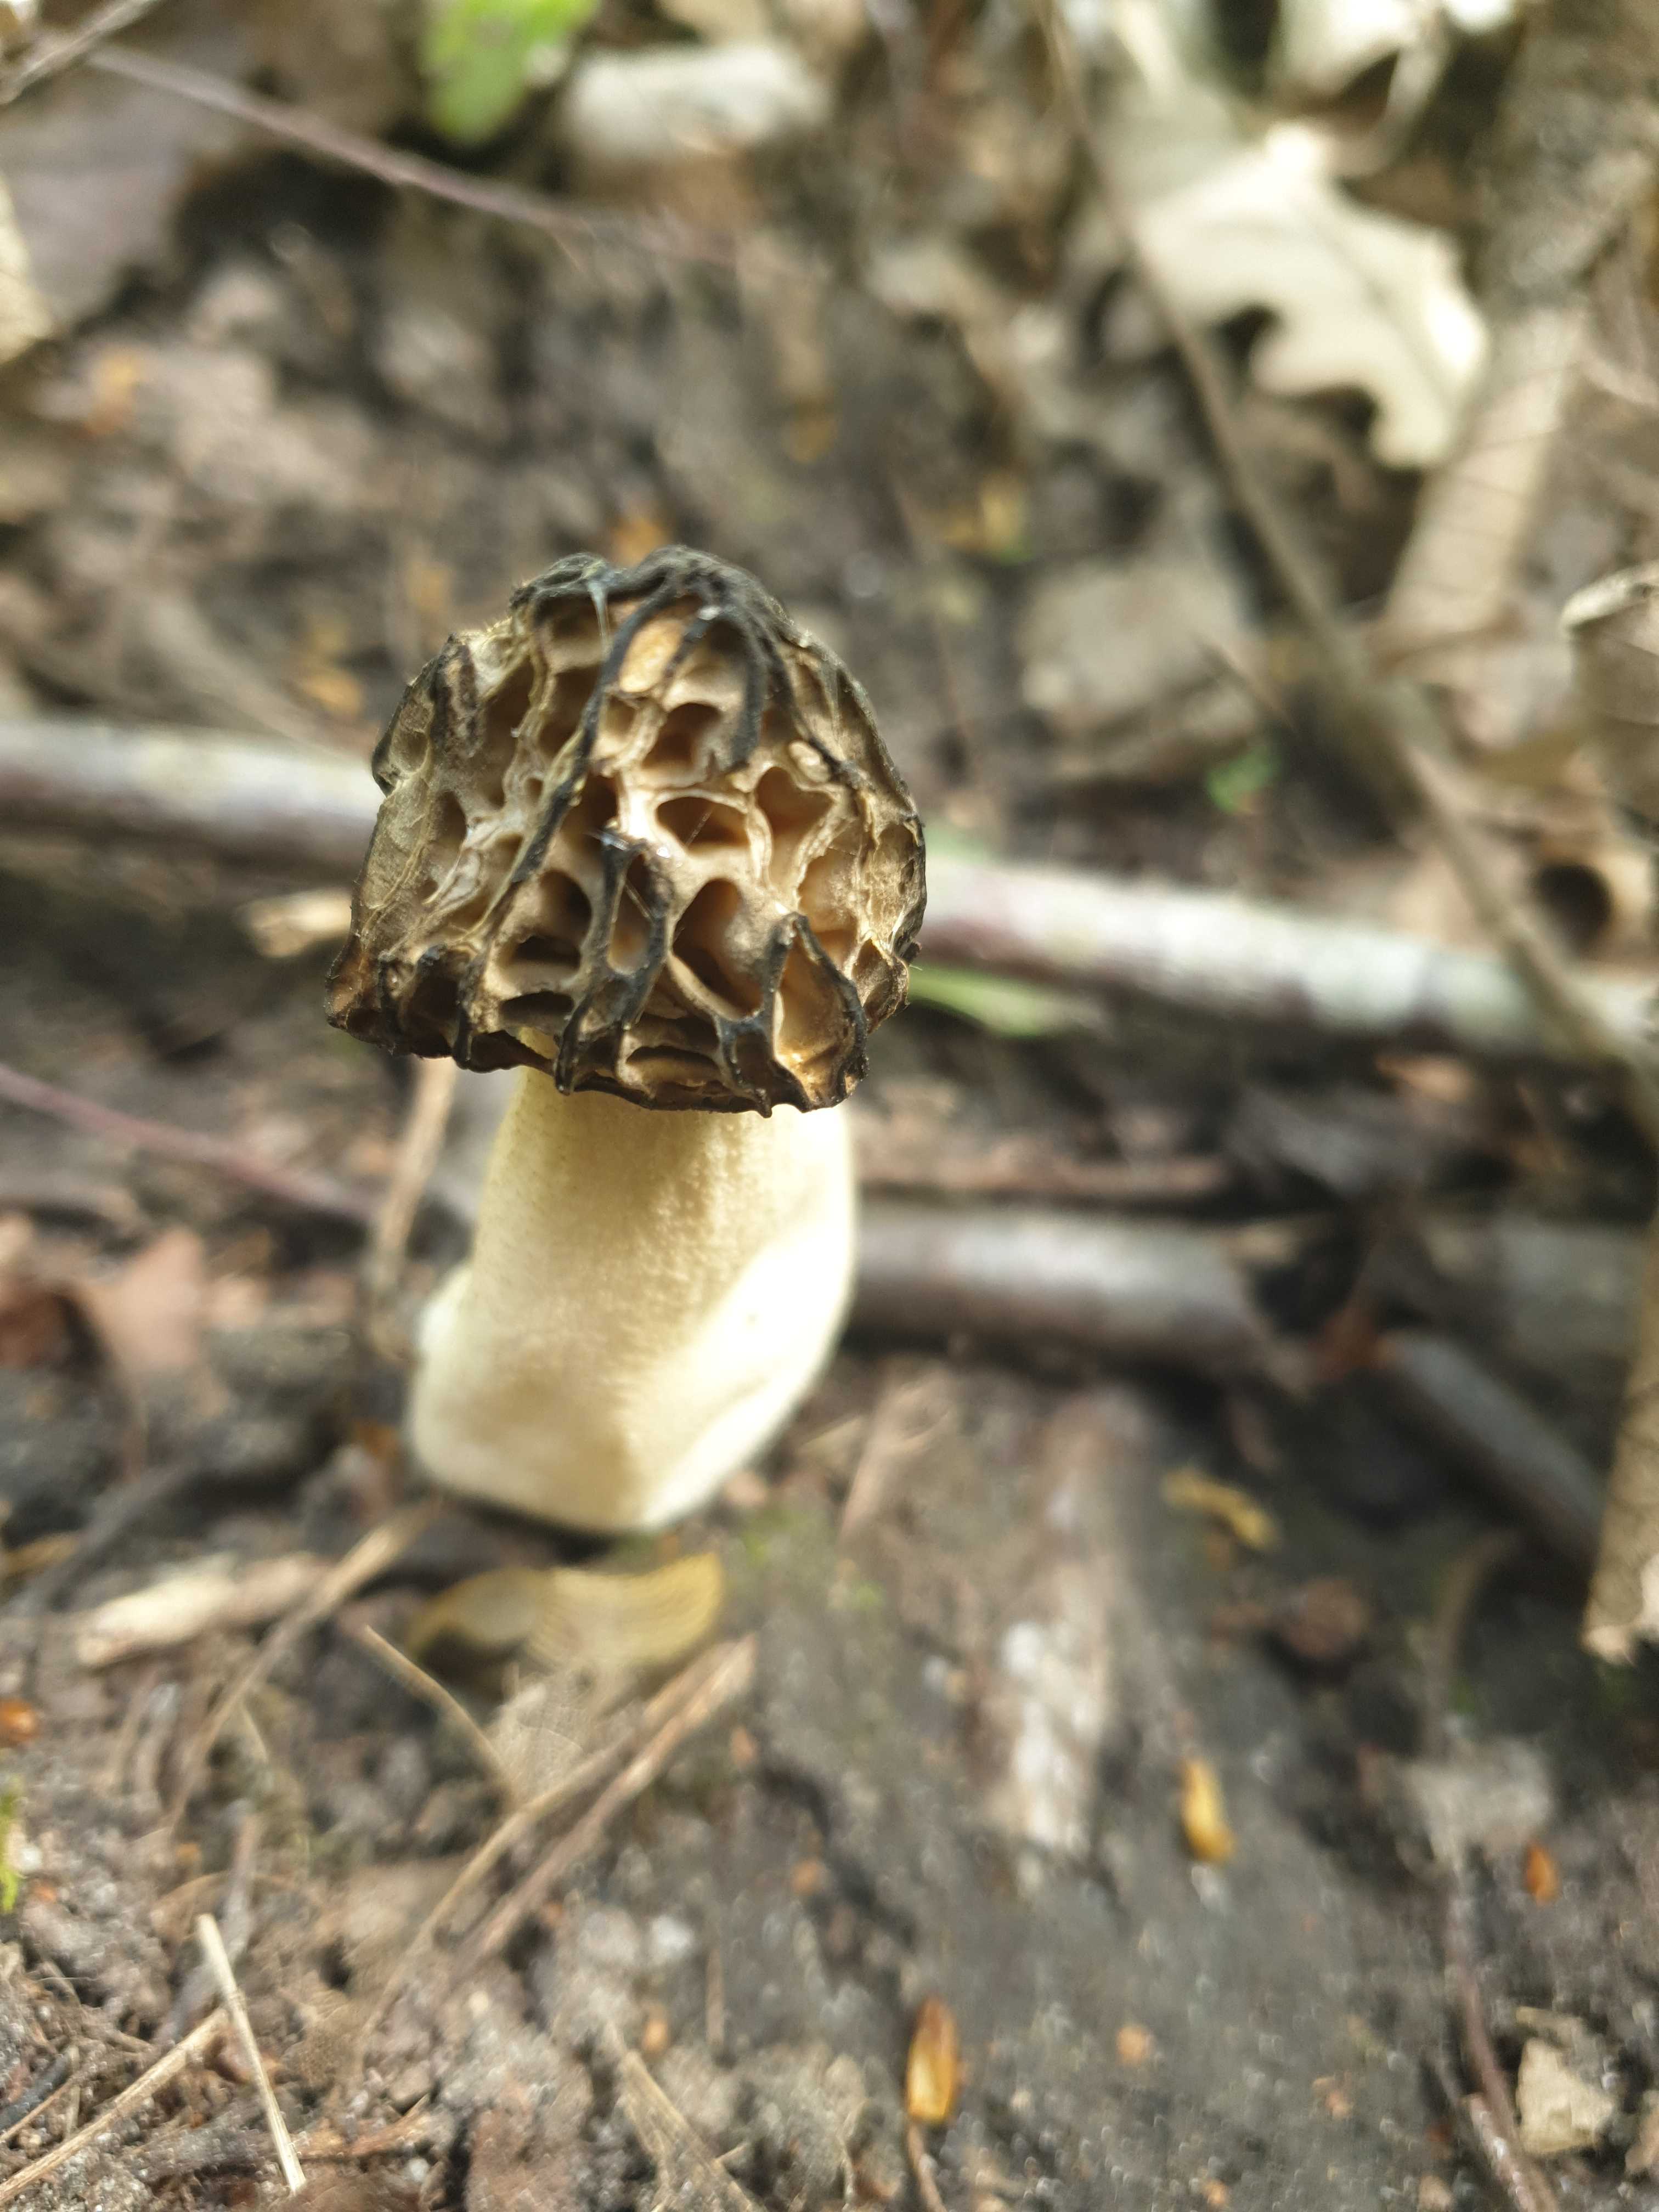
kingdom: Fungi
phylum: Ascomycota
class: Pezizomycetes
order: Pezizales
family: Morchellaceae
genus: Morchella
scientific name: Morchella semilibera
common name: hætte-morkel
